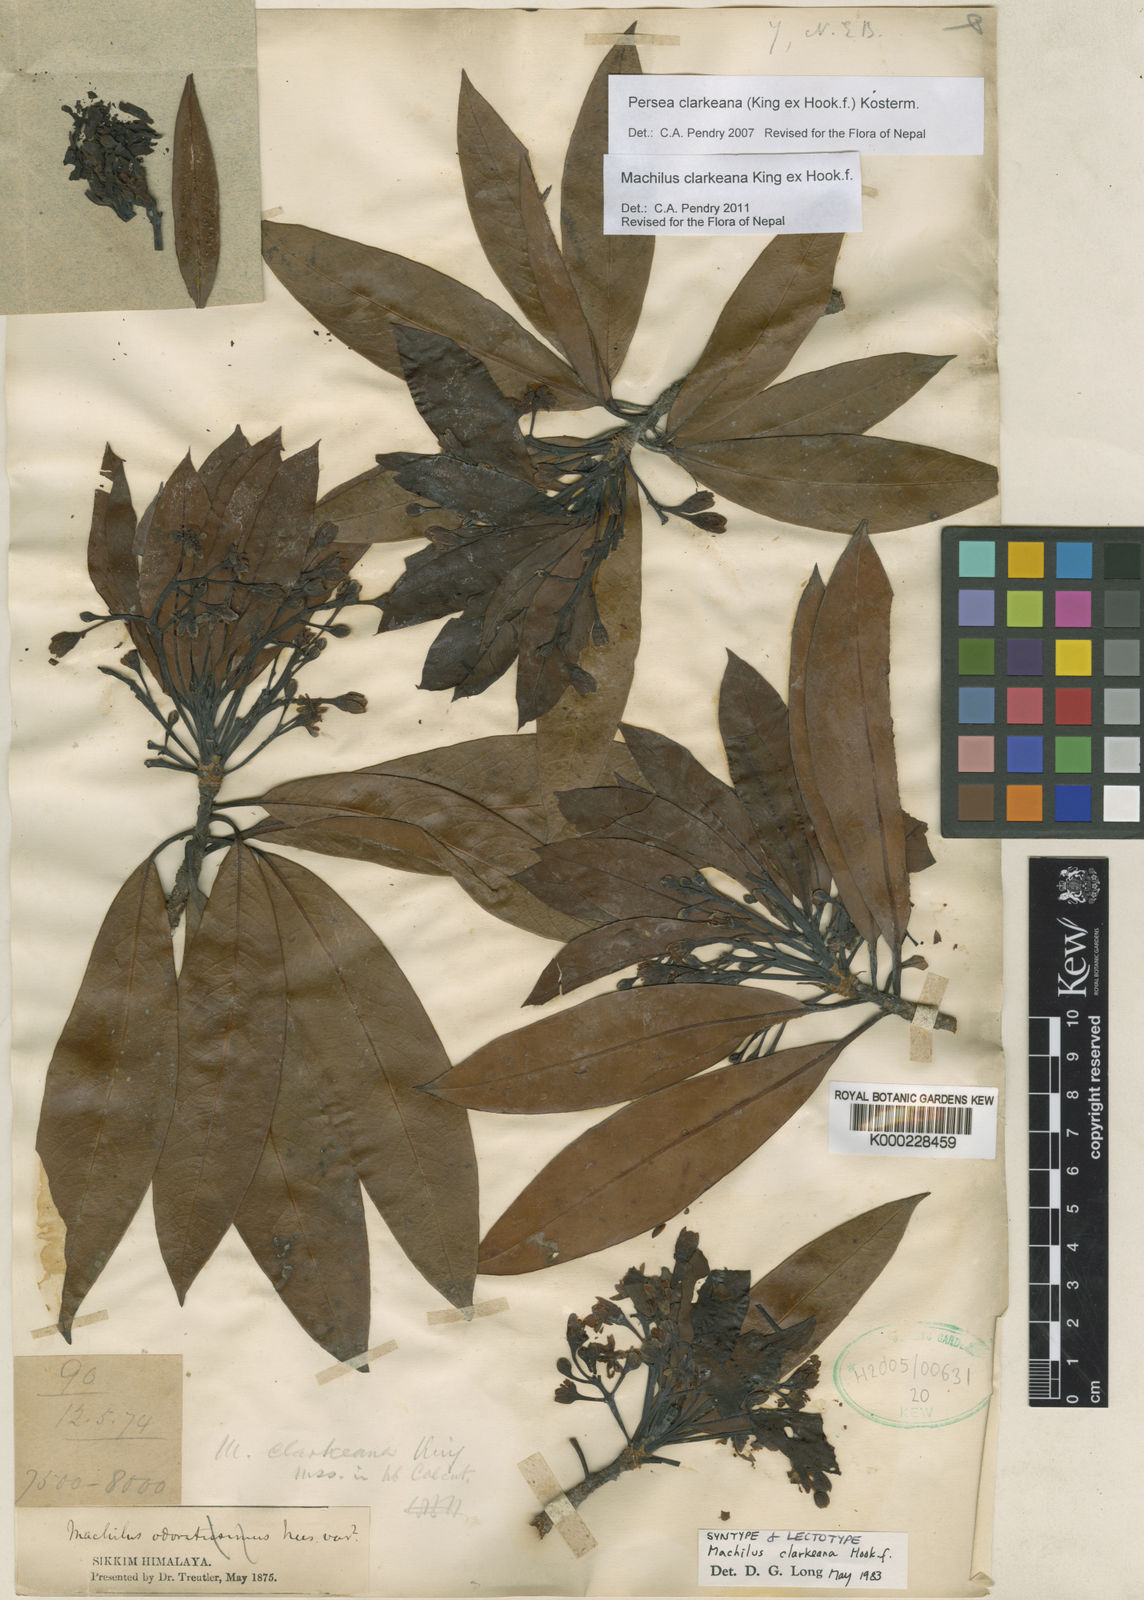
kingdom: Plantae
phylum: Tracheophyta
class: Magnoliopsida
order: Laurales
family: Lauraceae
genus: Machilus
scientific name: Machilus clarkeana
